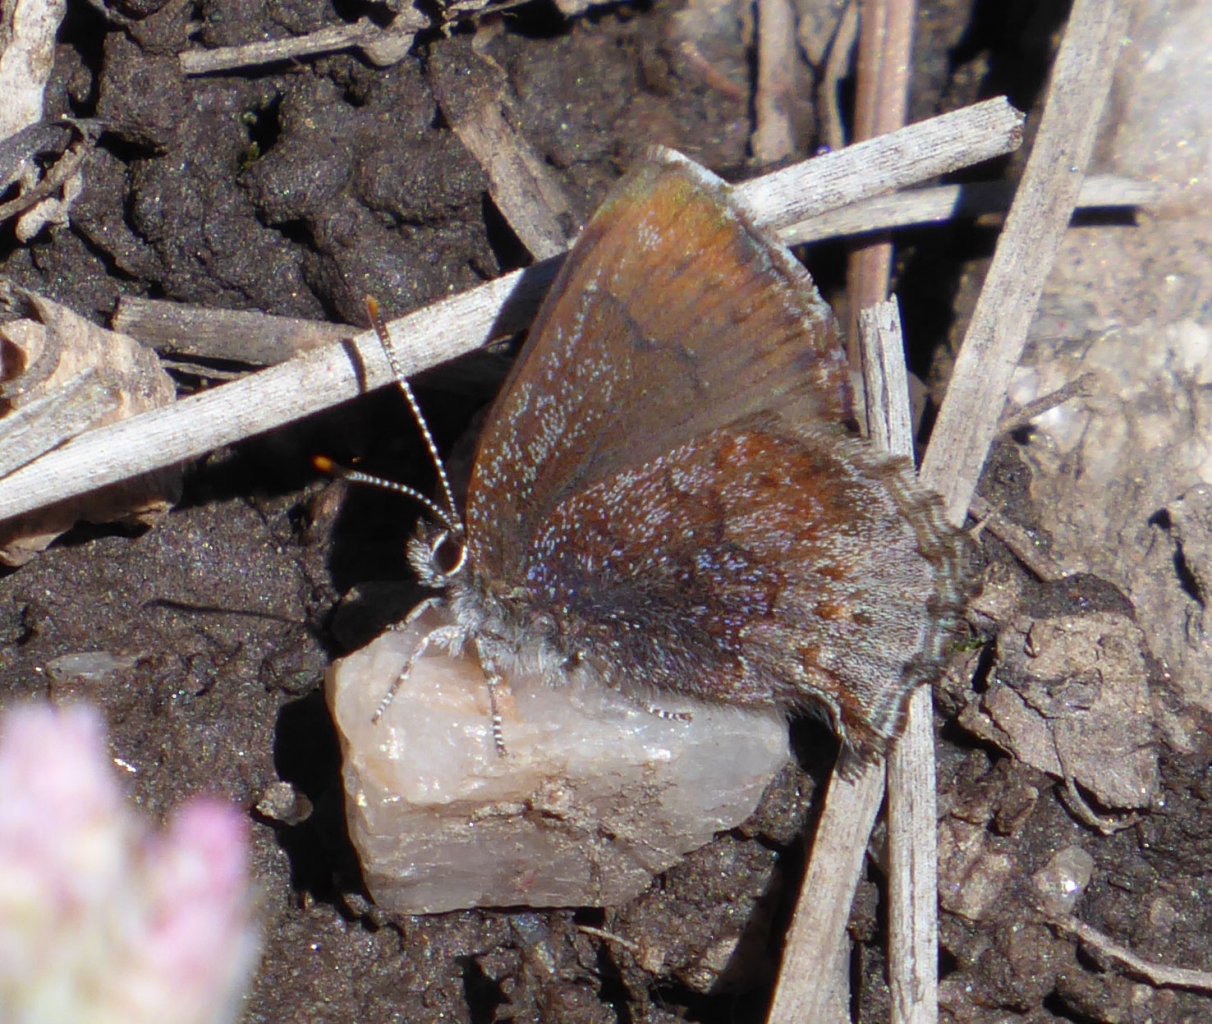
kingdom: Animalia
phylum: Arthropoda
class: Insecta
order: Lepidoptera
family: Lycaenidae
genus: Callophrys
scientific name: Callophrys polios
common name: Hoary Elfin
